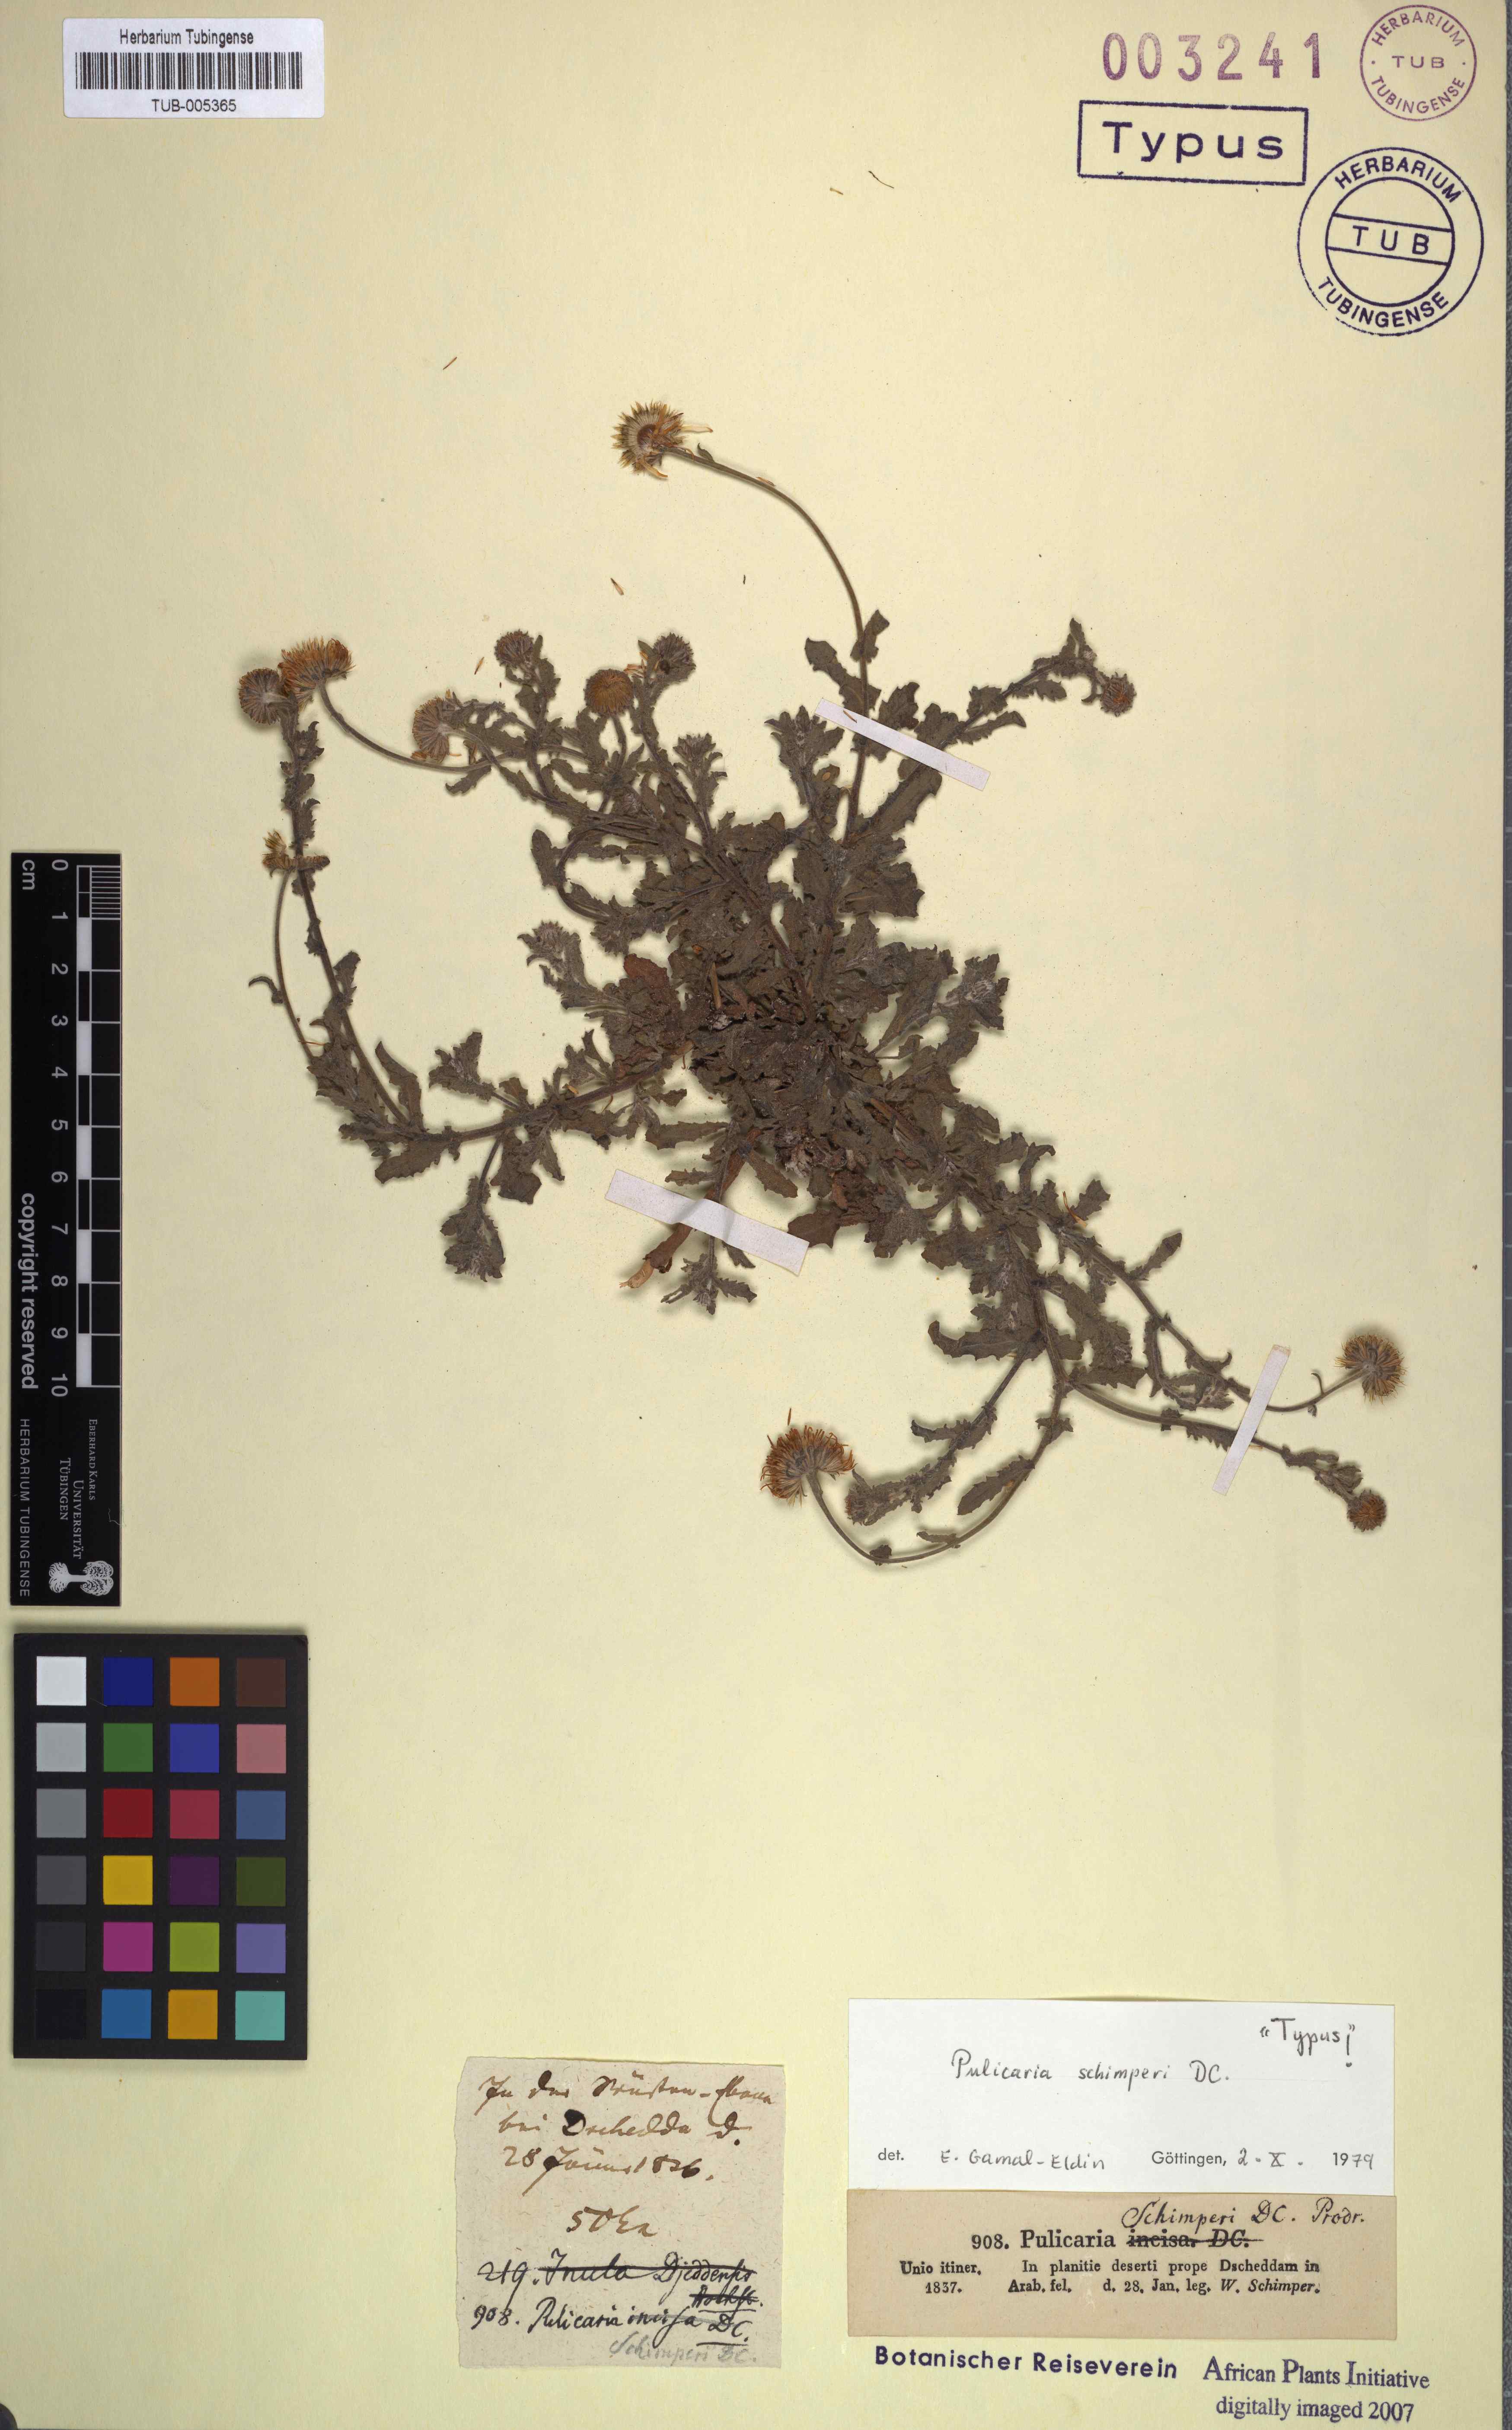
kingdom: Plantae
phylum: Tracheophyta
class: Magnoliopsida
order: Asterales
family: Asteraceae
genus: Pulicaria
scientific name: Pulicaria schimperi
